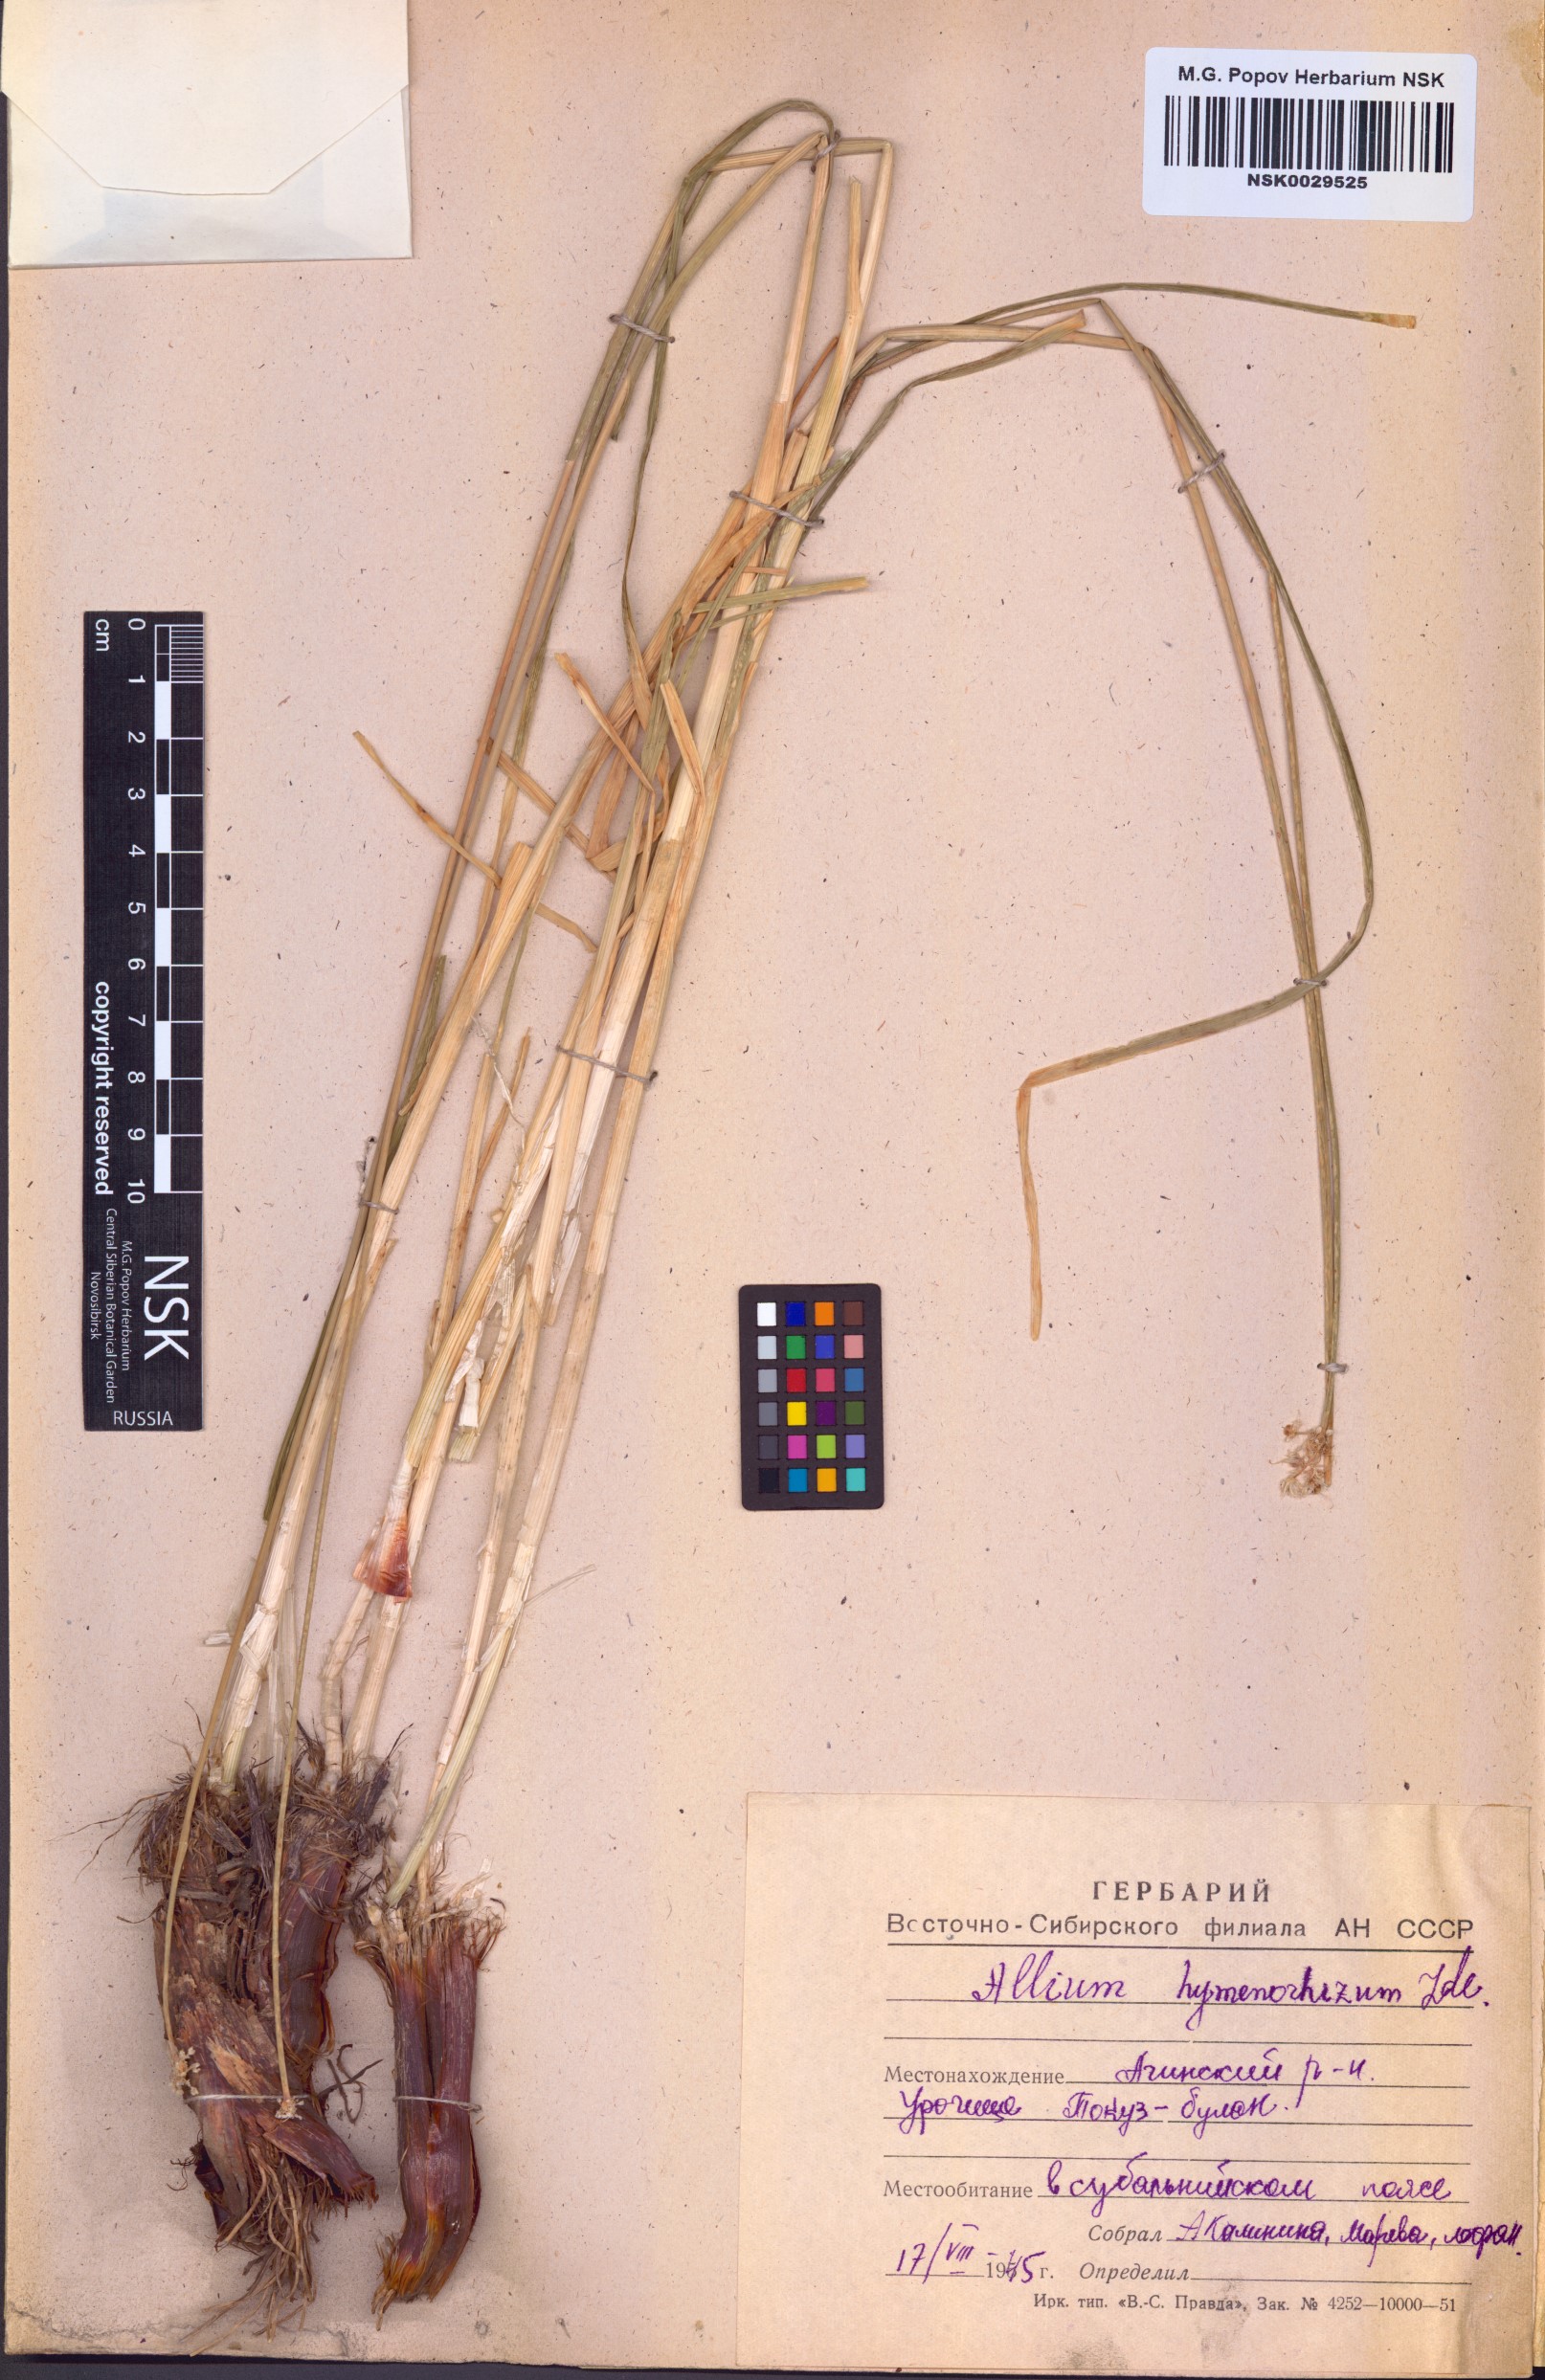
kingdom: Plantae
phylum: Tracheophyta
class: Liliopsida
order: Asparagales
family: Amaryllidaceae
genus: Allium
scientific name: Allium hymenorhizum
